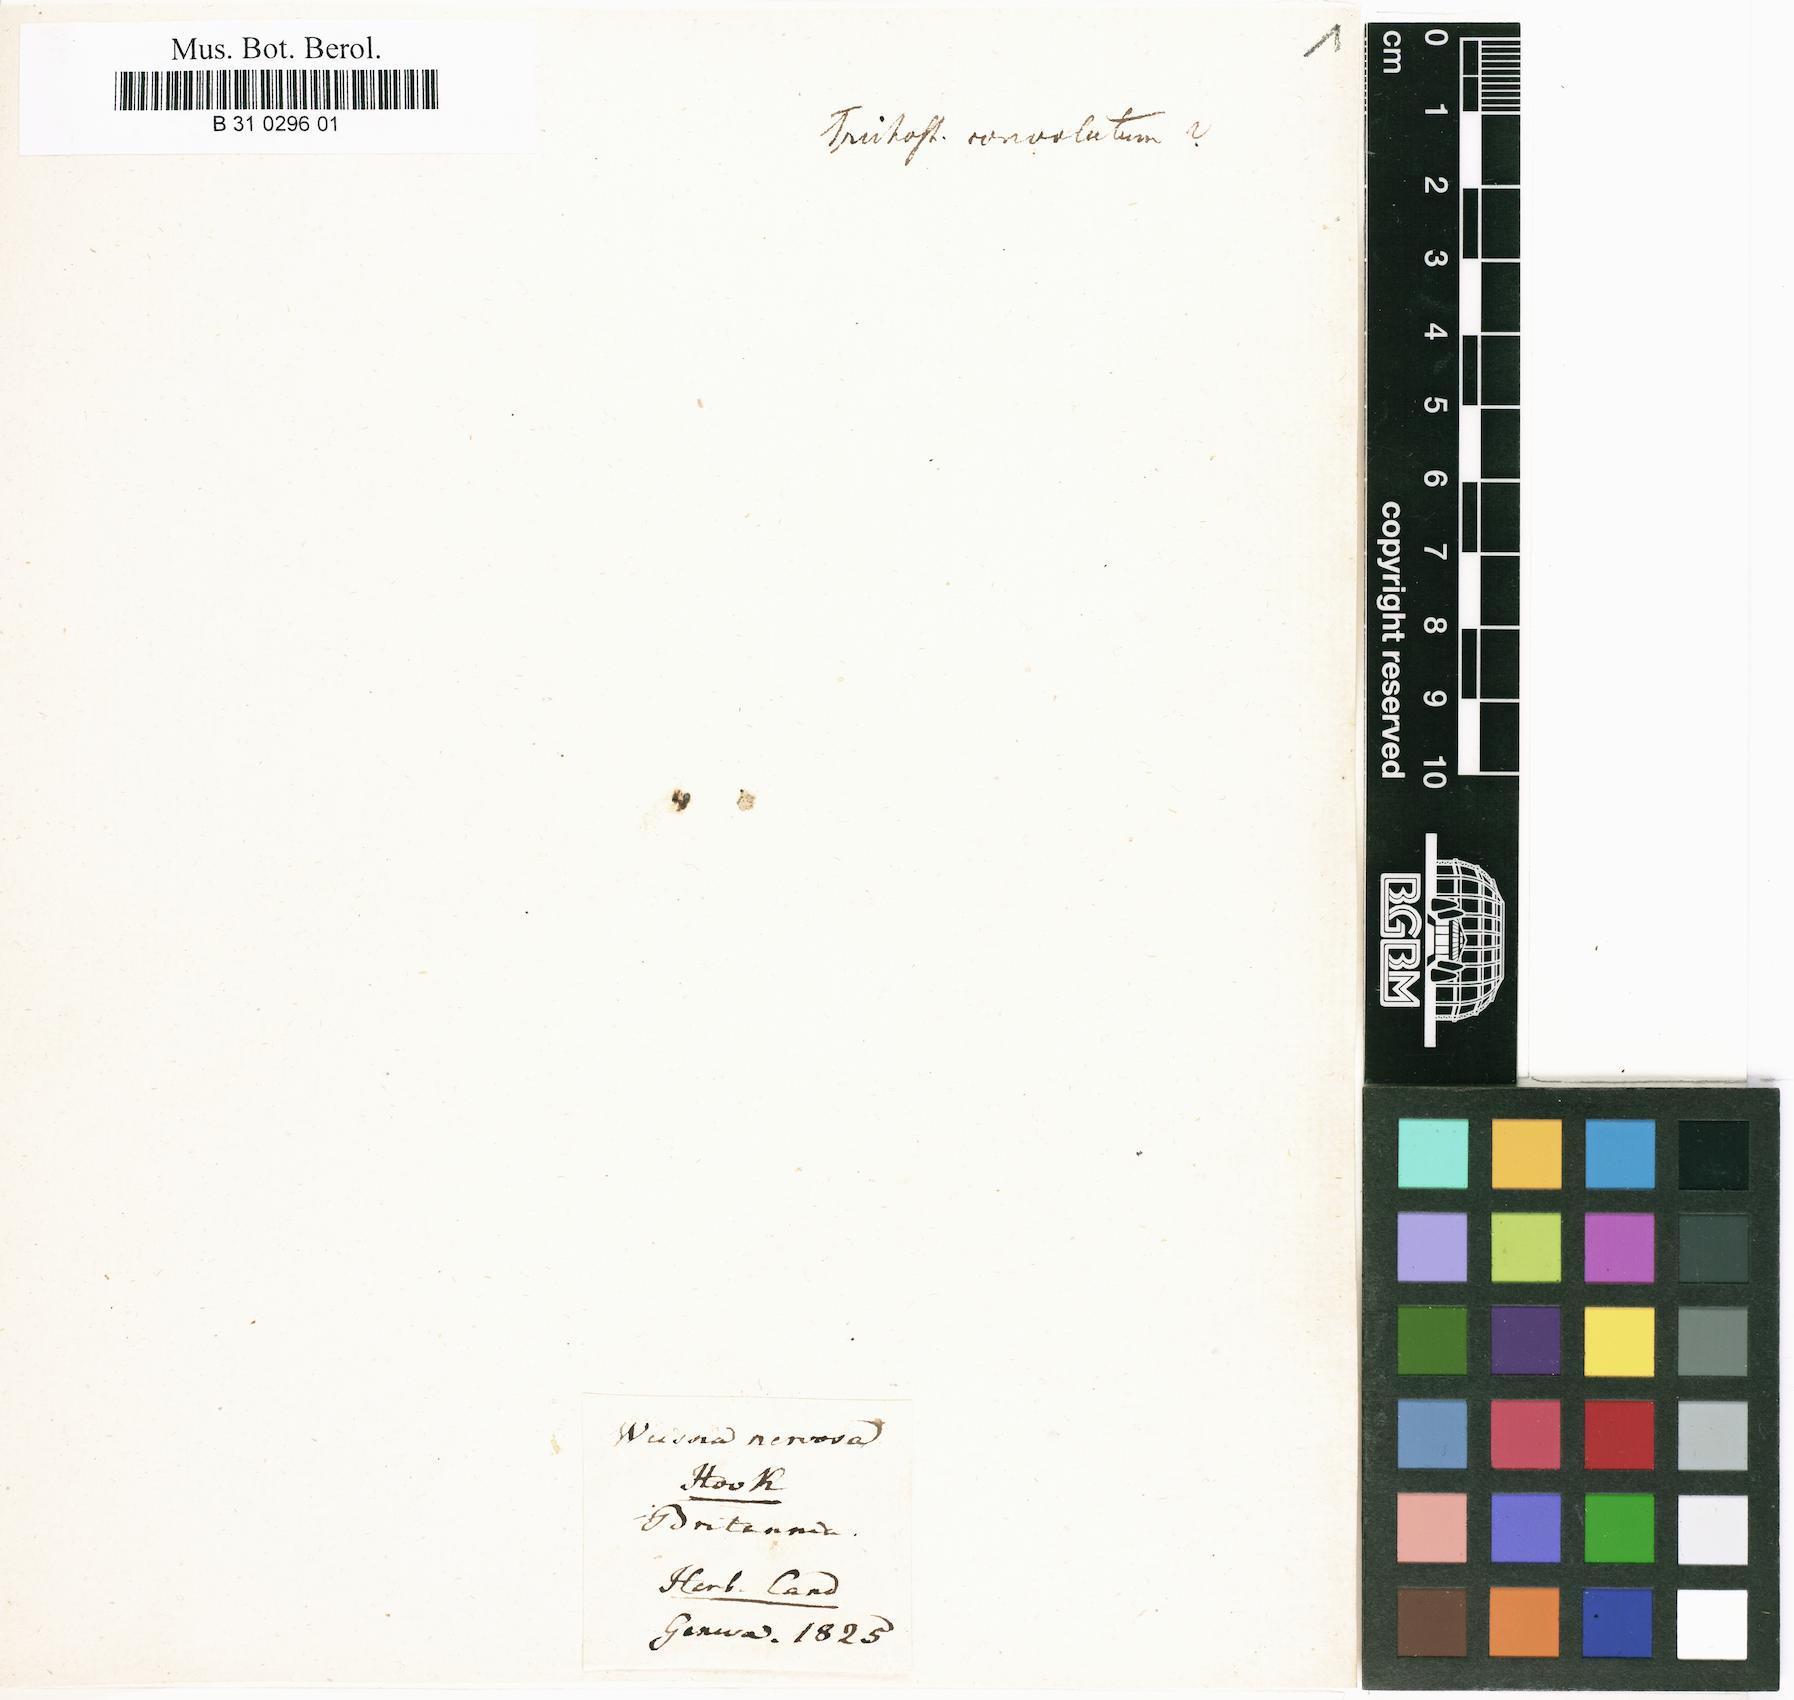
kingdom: Plantae
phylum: Bryophyta
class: Bryopsida
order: Pottiales
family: Pottiaceae
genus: Tortula
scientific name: Tortula atrovirens
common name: Rib-leaf moss
